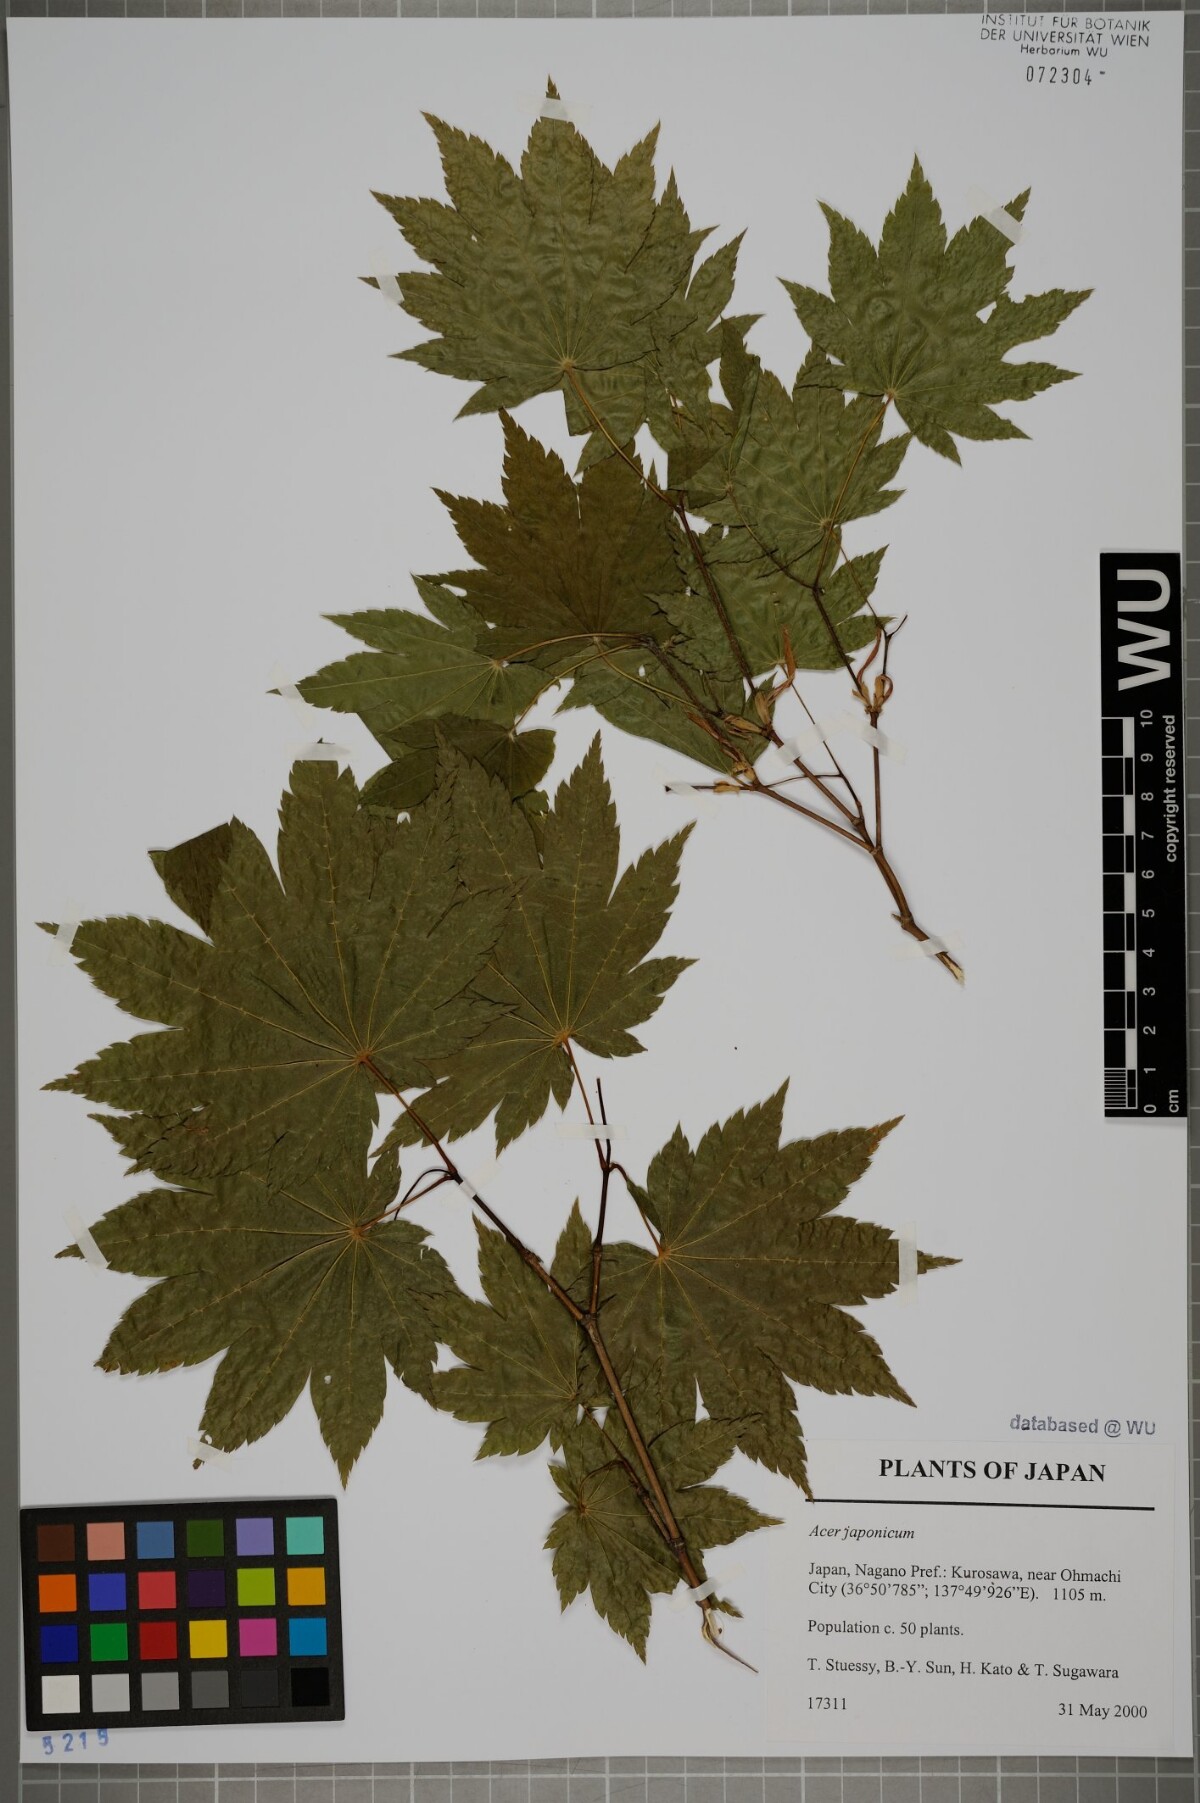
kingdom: Plantae
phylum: Tracheophyta
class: Magnoliopsida
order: Sapindales
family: Sapindaceae
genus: Acer
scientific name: Acer japonicum
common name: Amur maple
